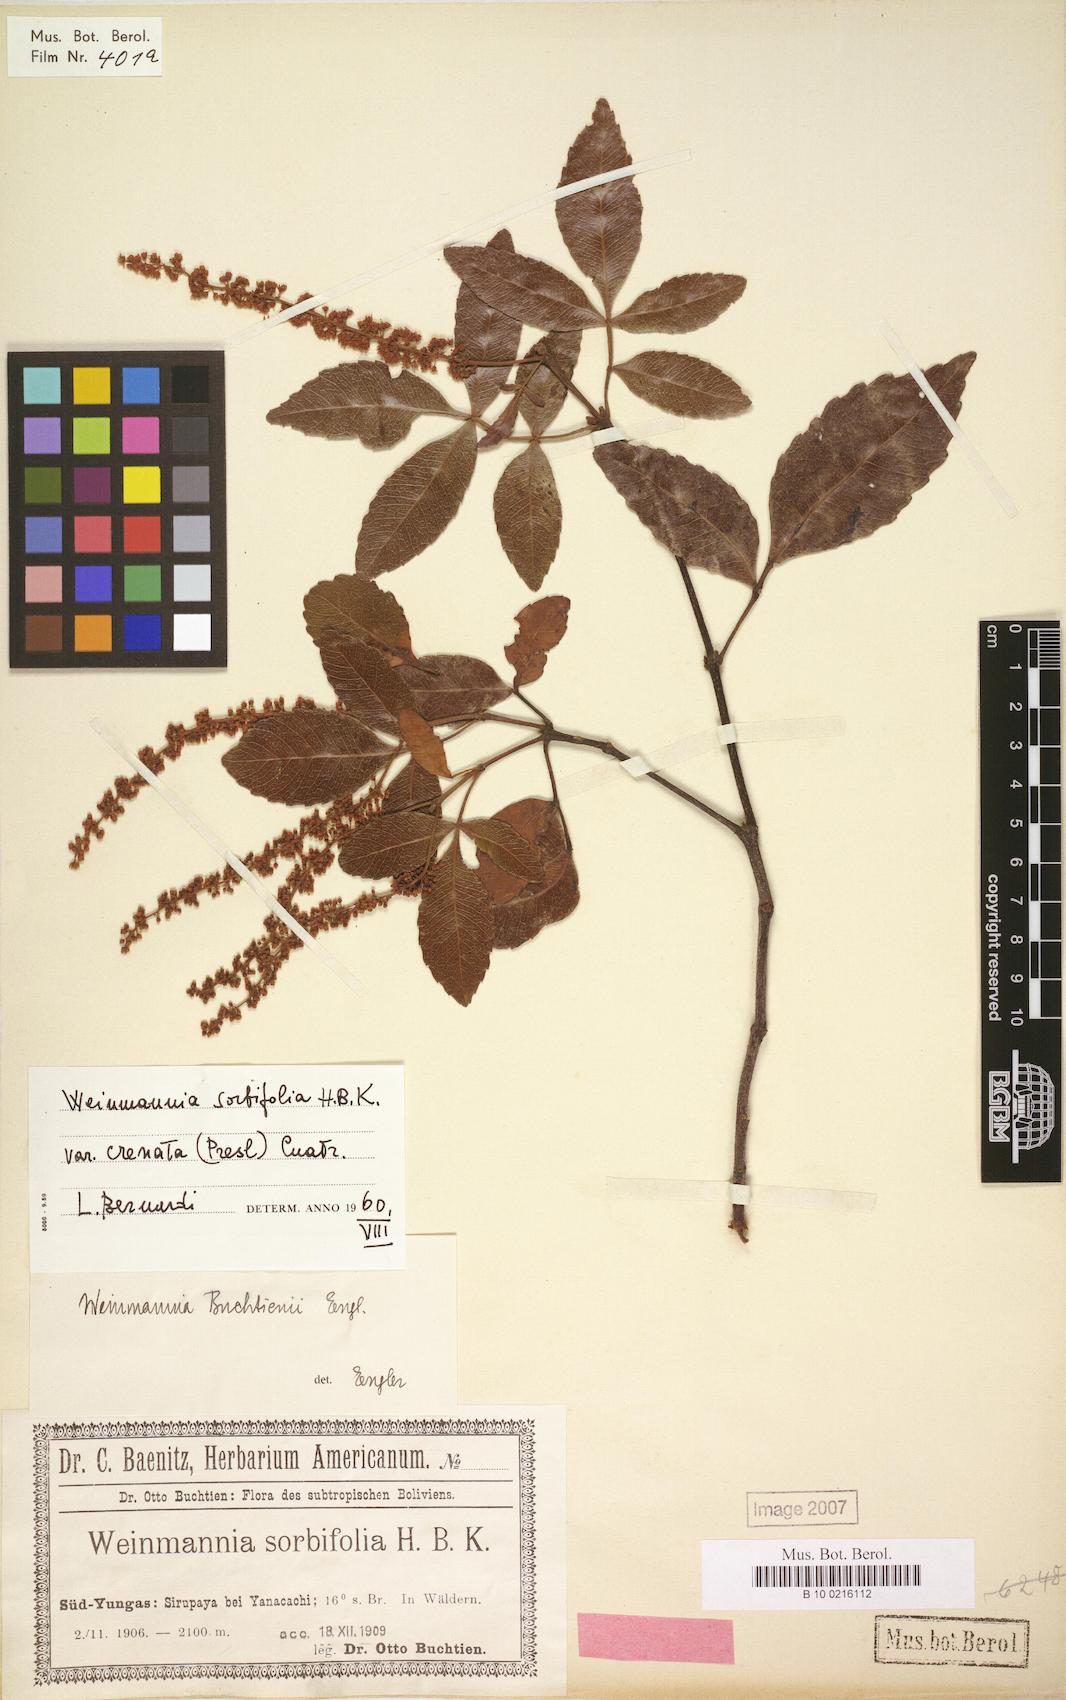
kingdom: Plantae
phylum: Tracheophyta
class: Magnoliopsida
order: Oxalidales
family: Cunoniaceae
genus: Weinmannia
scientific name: Weinmannia
